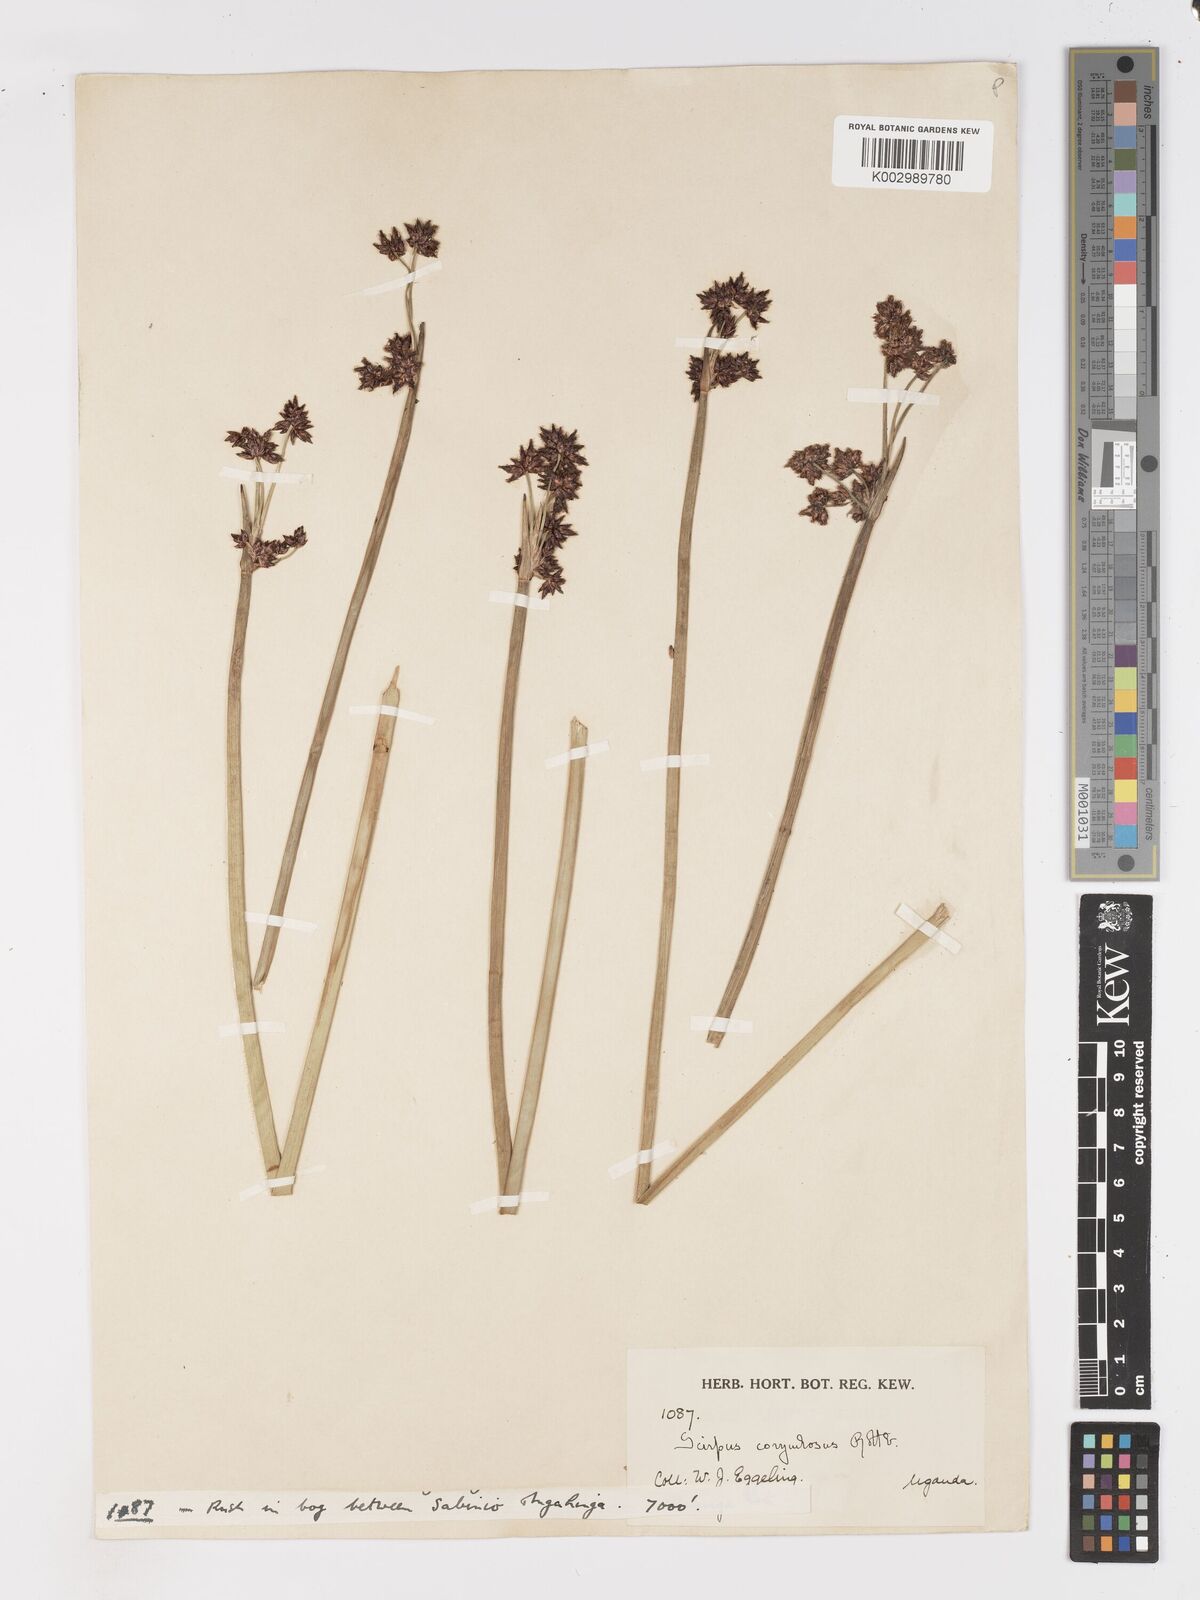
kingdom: Plantae
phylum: Tracheophyta
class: Liliopsida
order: Poales
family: Cyperaceae
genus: Schoenoplectiella
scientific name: Schoenoplectiella brachyceras
